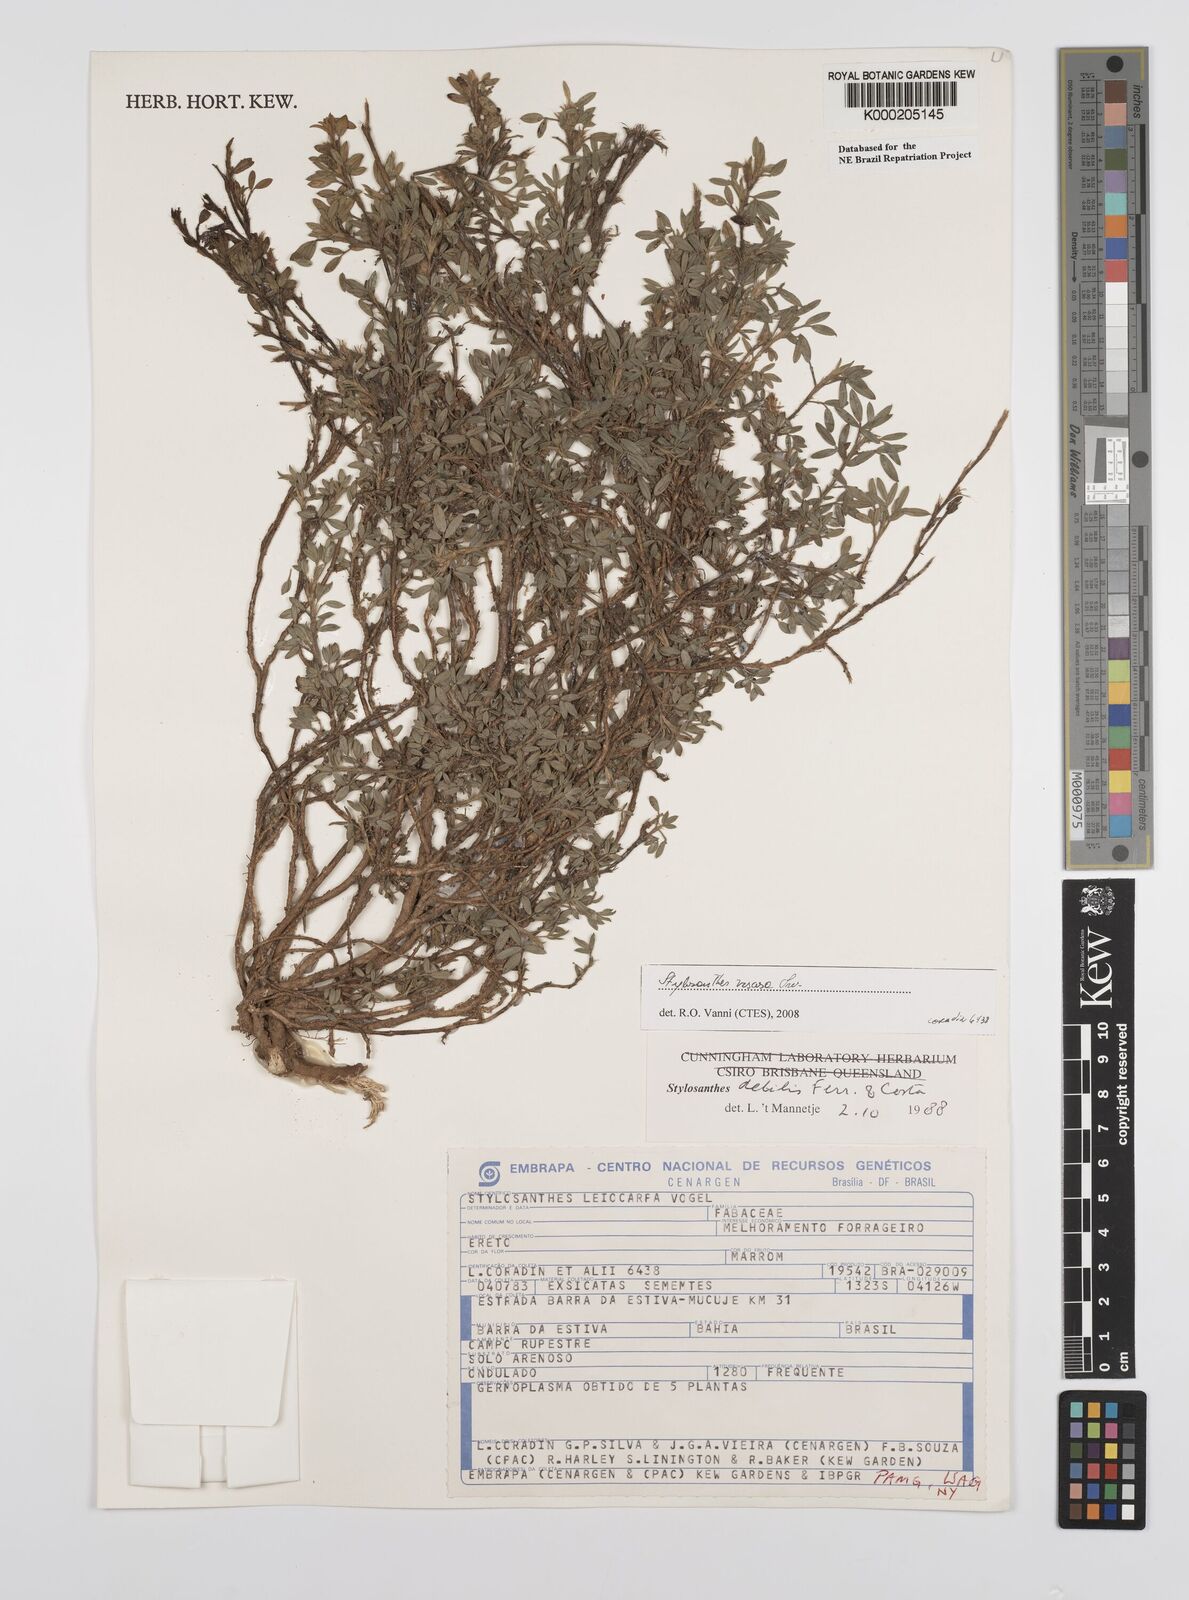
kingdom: Plantae
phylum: Tracheophyta
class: Magnoliopsida
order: Fabales
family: Fabaceae
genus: Stylosanthes
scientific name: Stylosanthes viscosa
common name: Viscid pencil-flower
